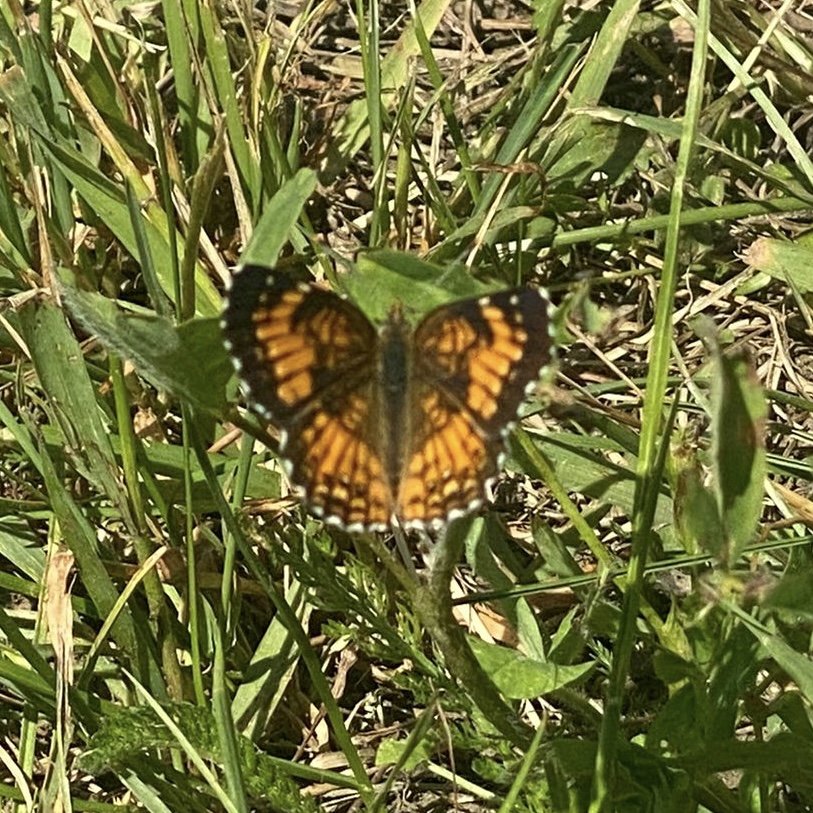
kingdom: Animalia
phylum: Arthropoda
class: Insecta
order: Lepidoptera
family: Nymphalidae
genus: Chlosyne
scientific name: Chlosyne harrisii
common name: Harris's Checkerspot
